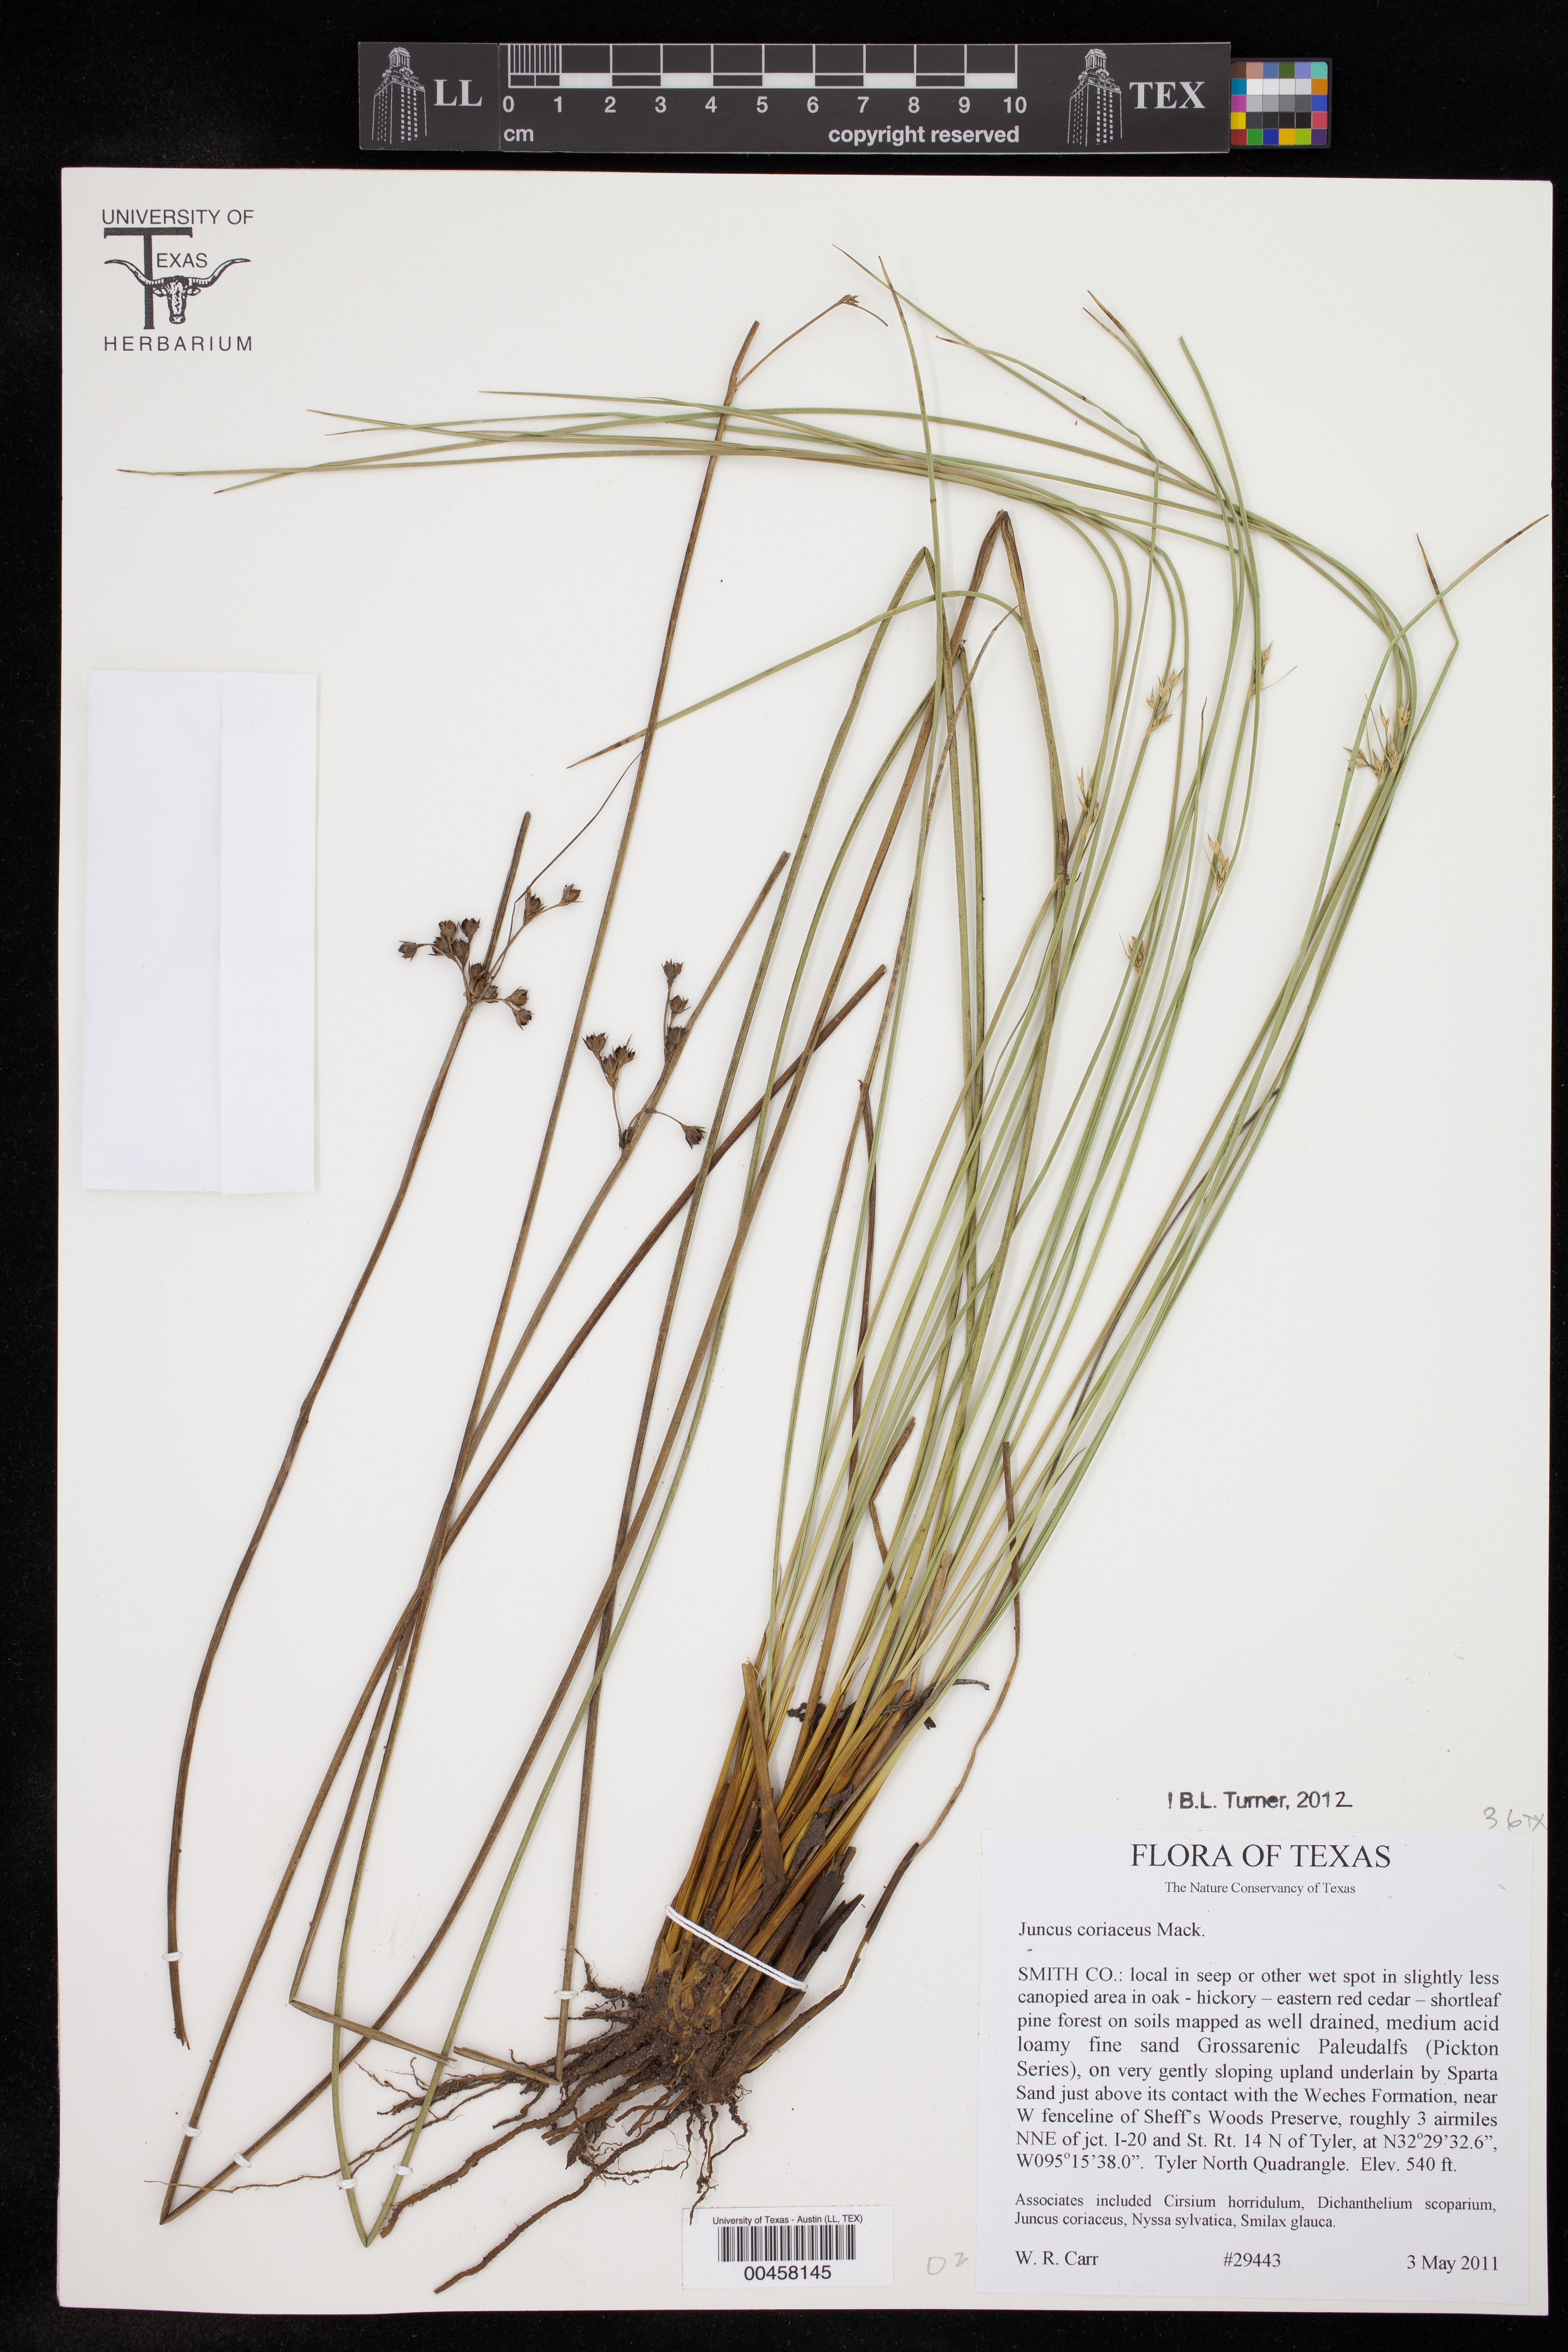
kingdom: Plantae
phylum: Tracheophyta
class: Liliopsida
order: Poales
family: Juncaceae
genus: Juncus
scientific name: Juncus coriaceus
